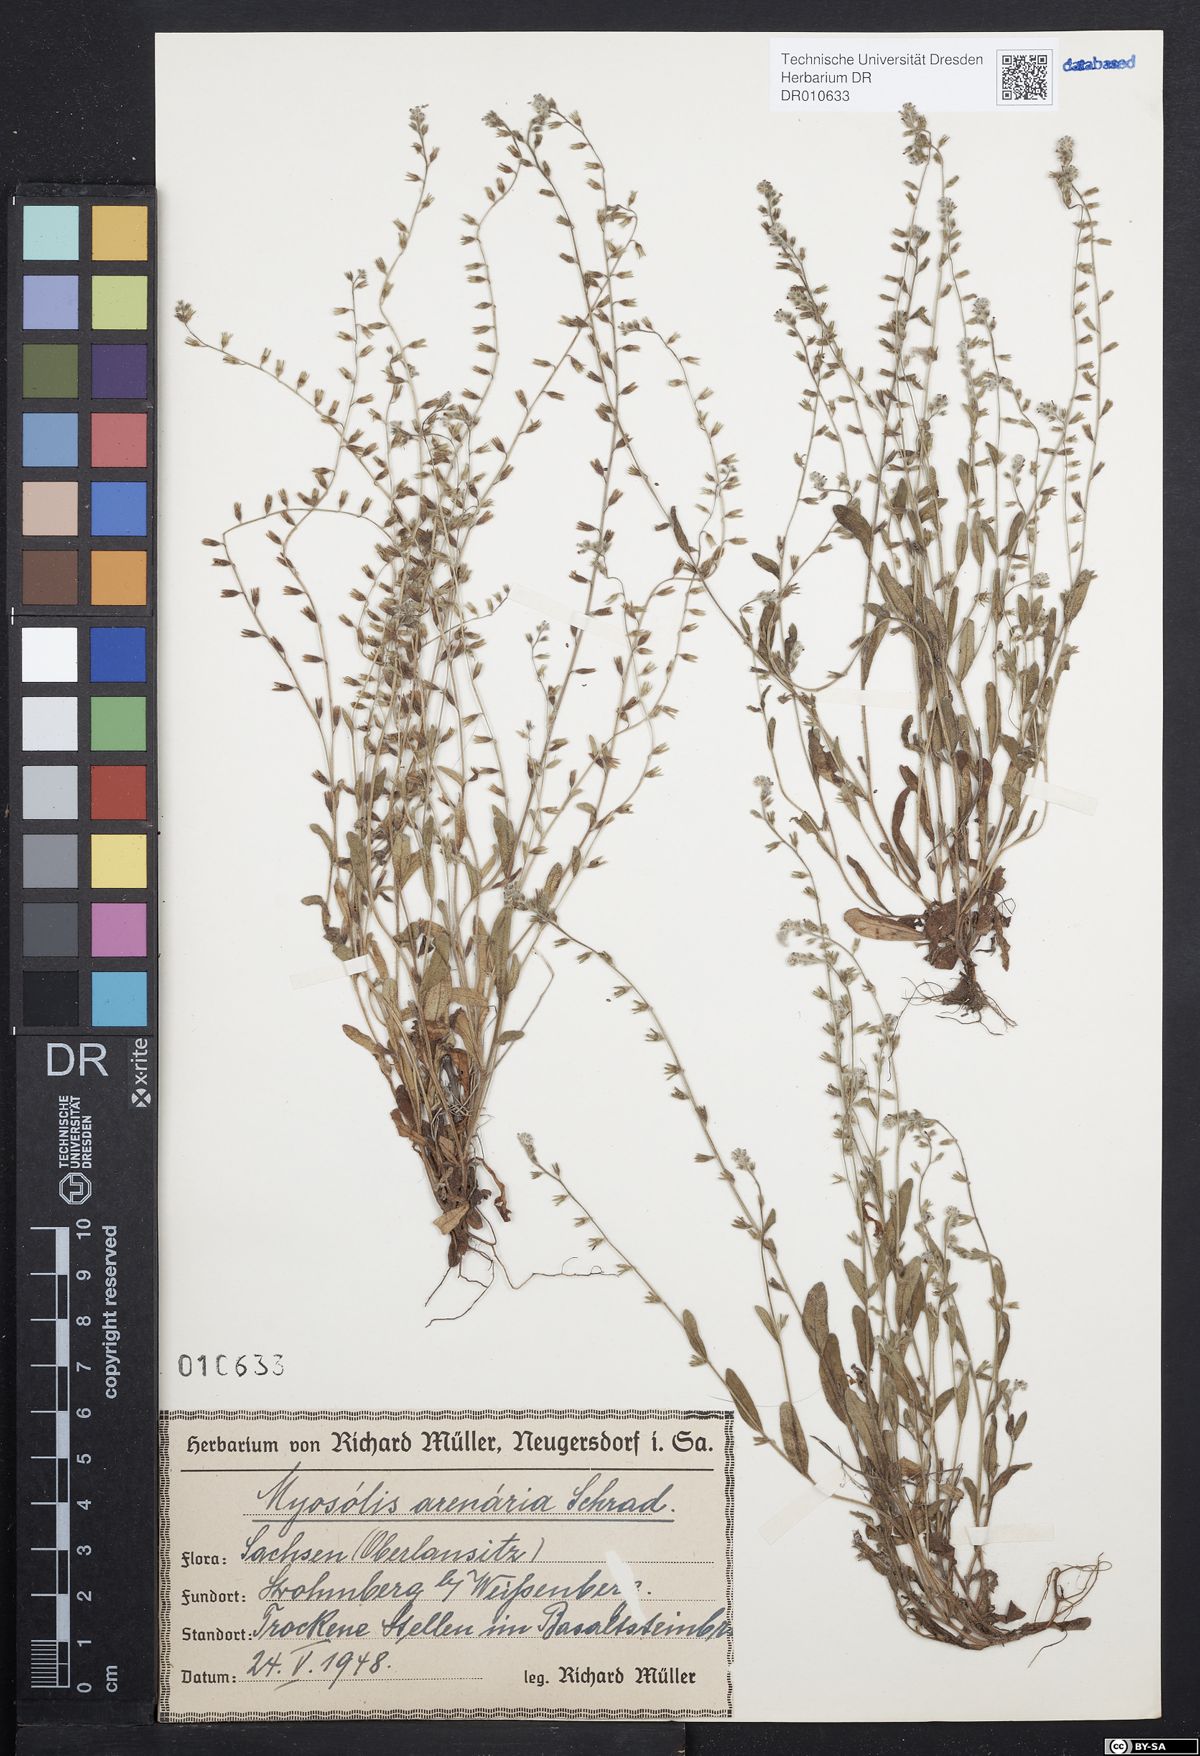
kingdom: Plantae
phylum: Tracheophyta
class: Magnoliopsida
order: Boraginales
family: Boraginaceae
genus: Myosotis
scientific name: Myosotis stricta
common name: Strict forget-me-not
